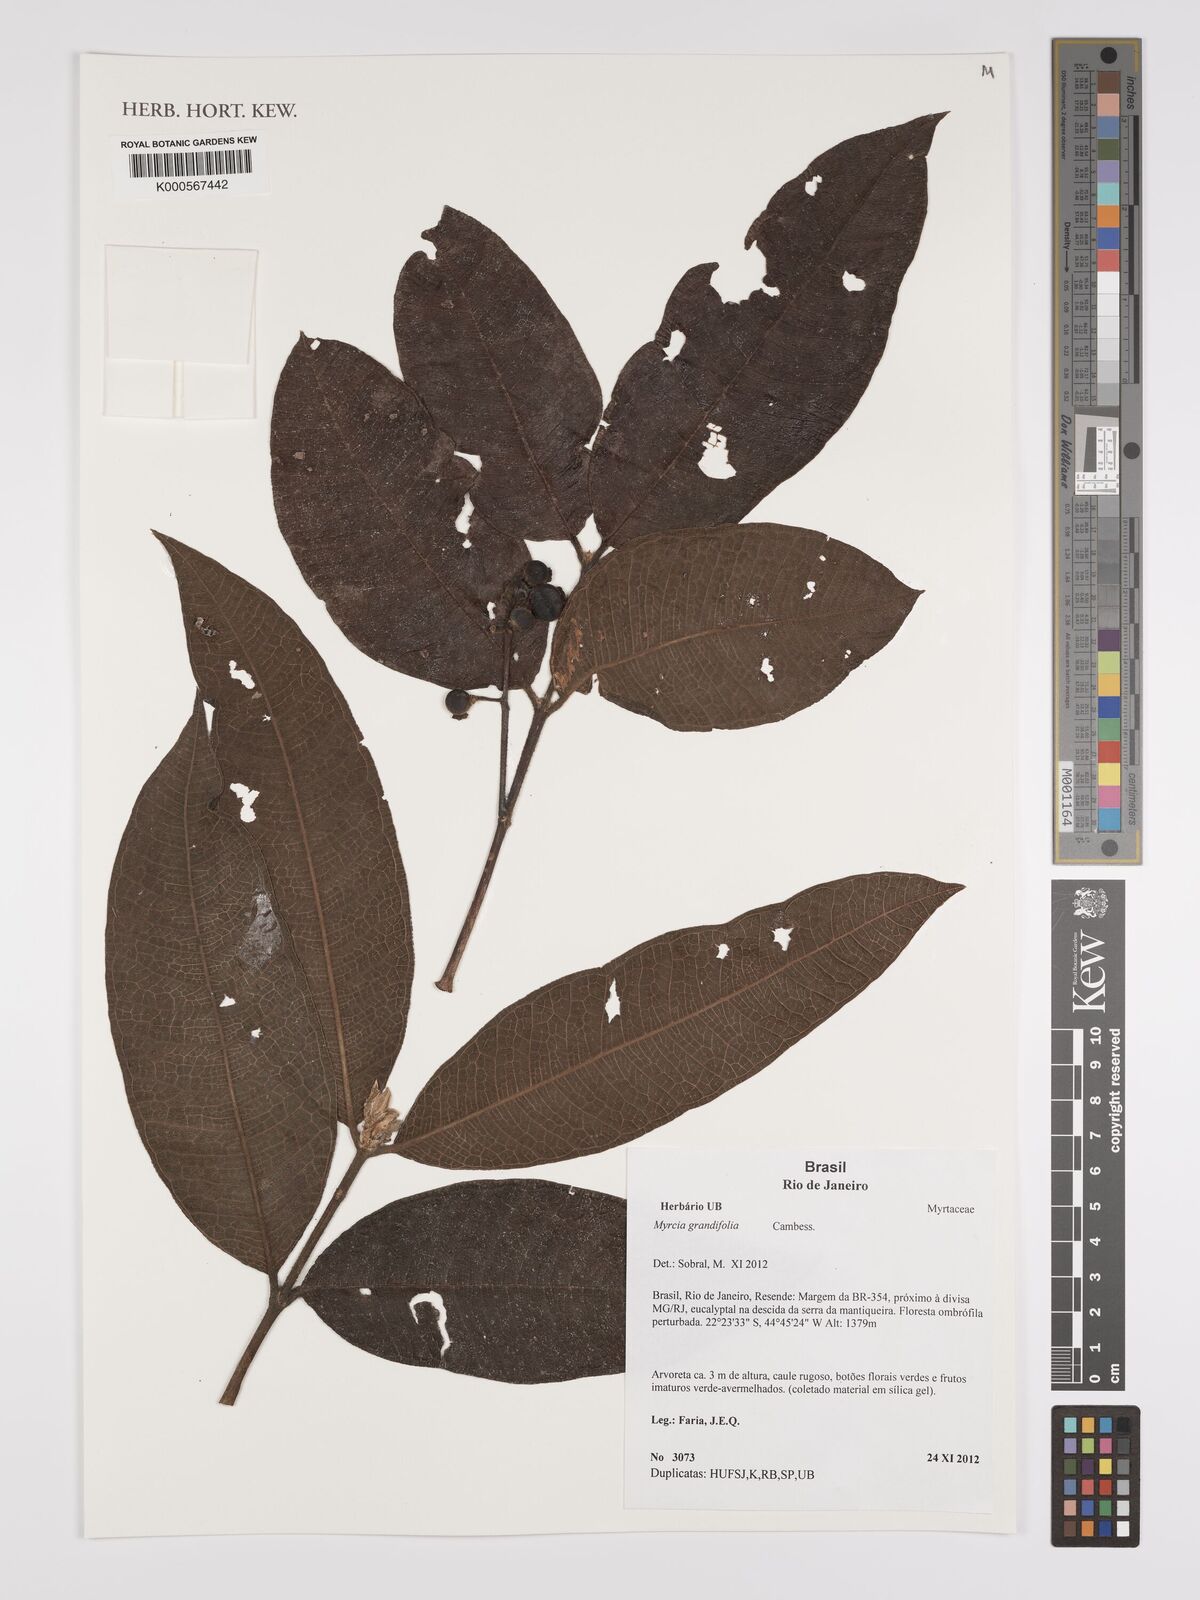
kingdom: Plantae
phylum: Tracheophyta
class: Magnoliopsida
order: Myrtales
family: Myrtaceae
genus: Myrcia
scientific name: Myrcia grandifolia
